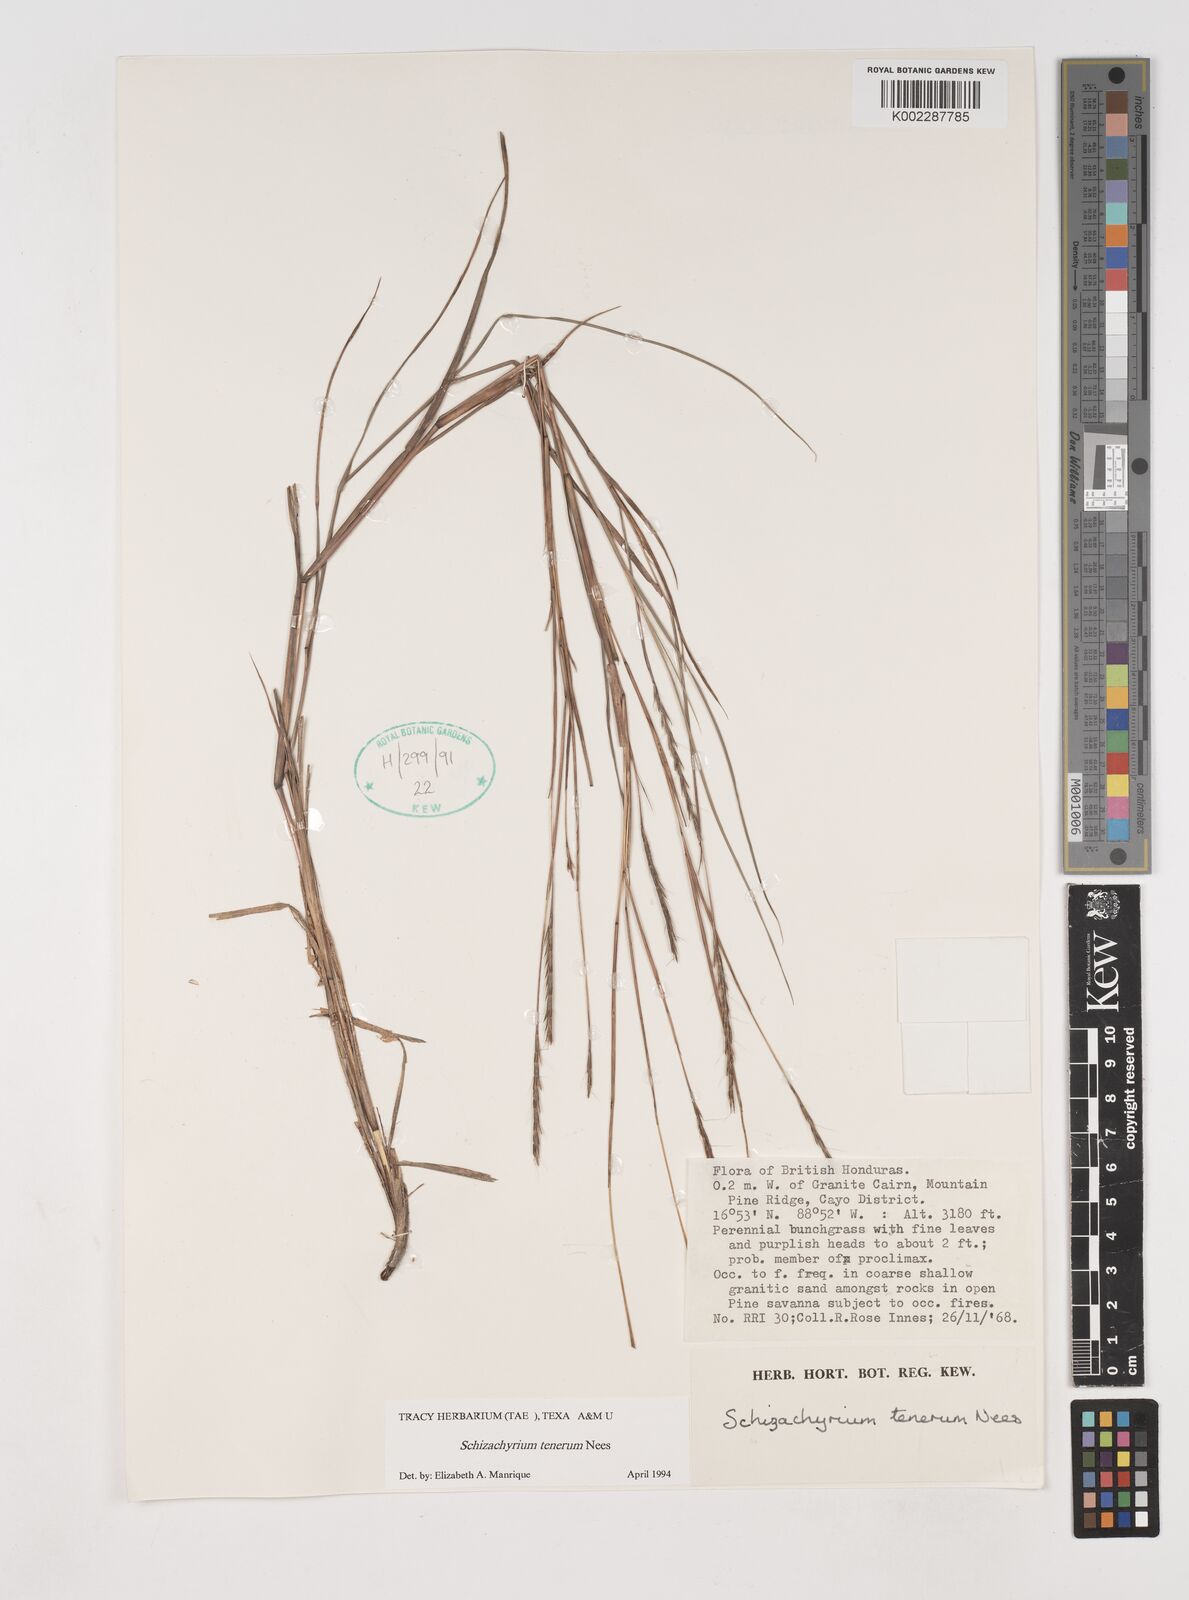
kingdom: Plantae
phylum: Tracheophyta
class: Liliopsida
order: Poales
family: Poaceae
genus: Andropogon
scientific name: Andropogon tener
